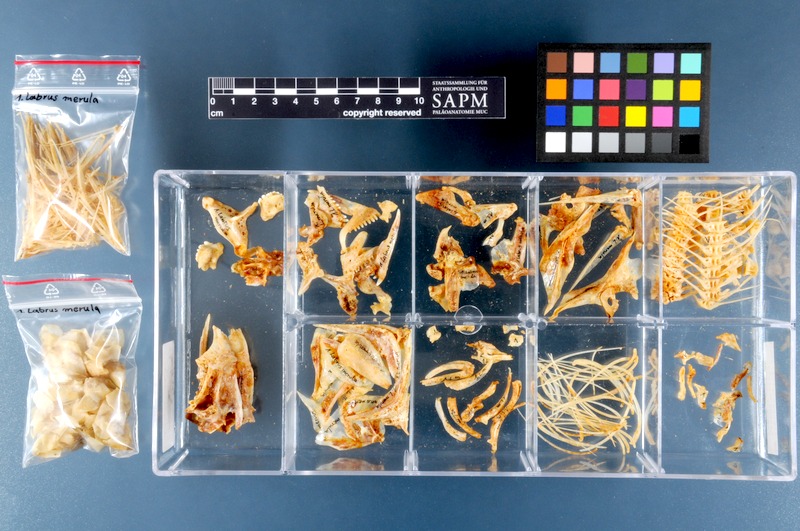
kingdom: Animalia
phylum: Chordata
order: Perciformes
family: Labridae
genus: Labrus
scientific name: Labrus merula
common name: Brown wrasse
